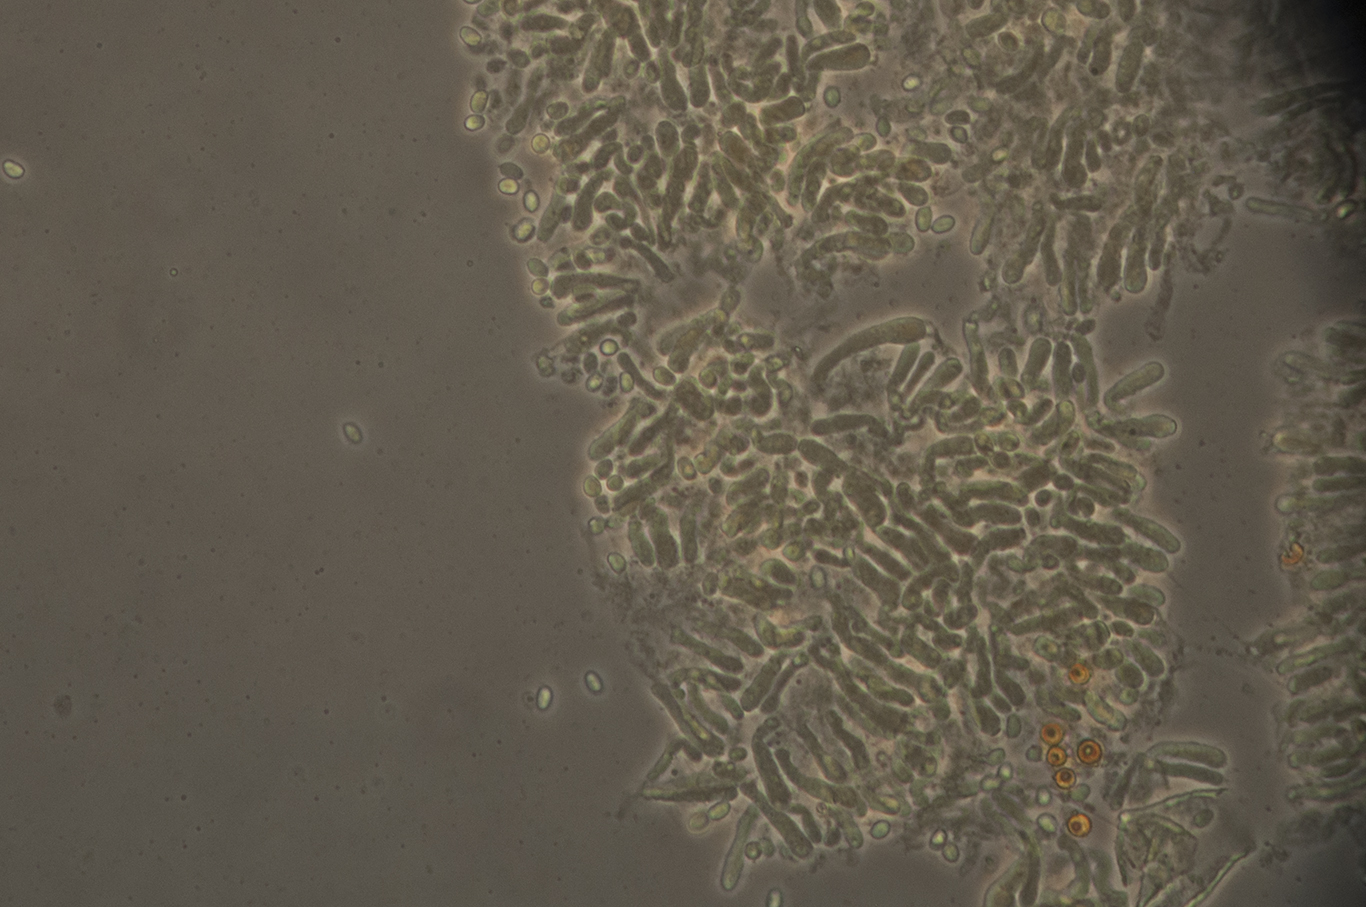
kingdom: Fungi
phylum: Basidiomycota
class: Agaricomycetes
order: Agaricales
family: Tricholomataceae
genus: Clitocybe
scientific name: Clitocybe rivulosa
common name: eng-tragthat
